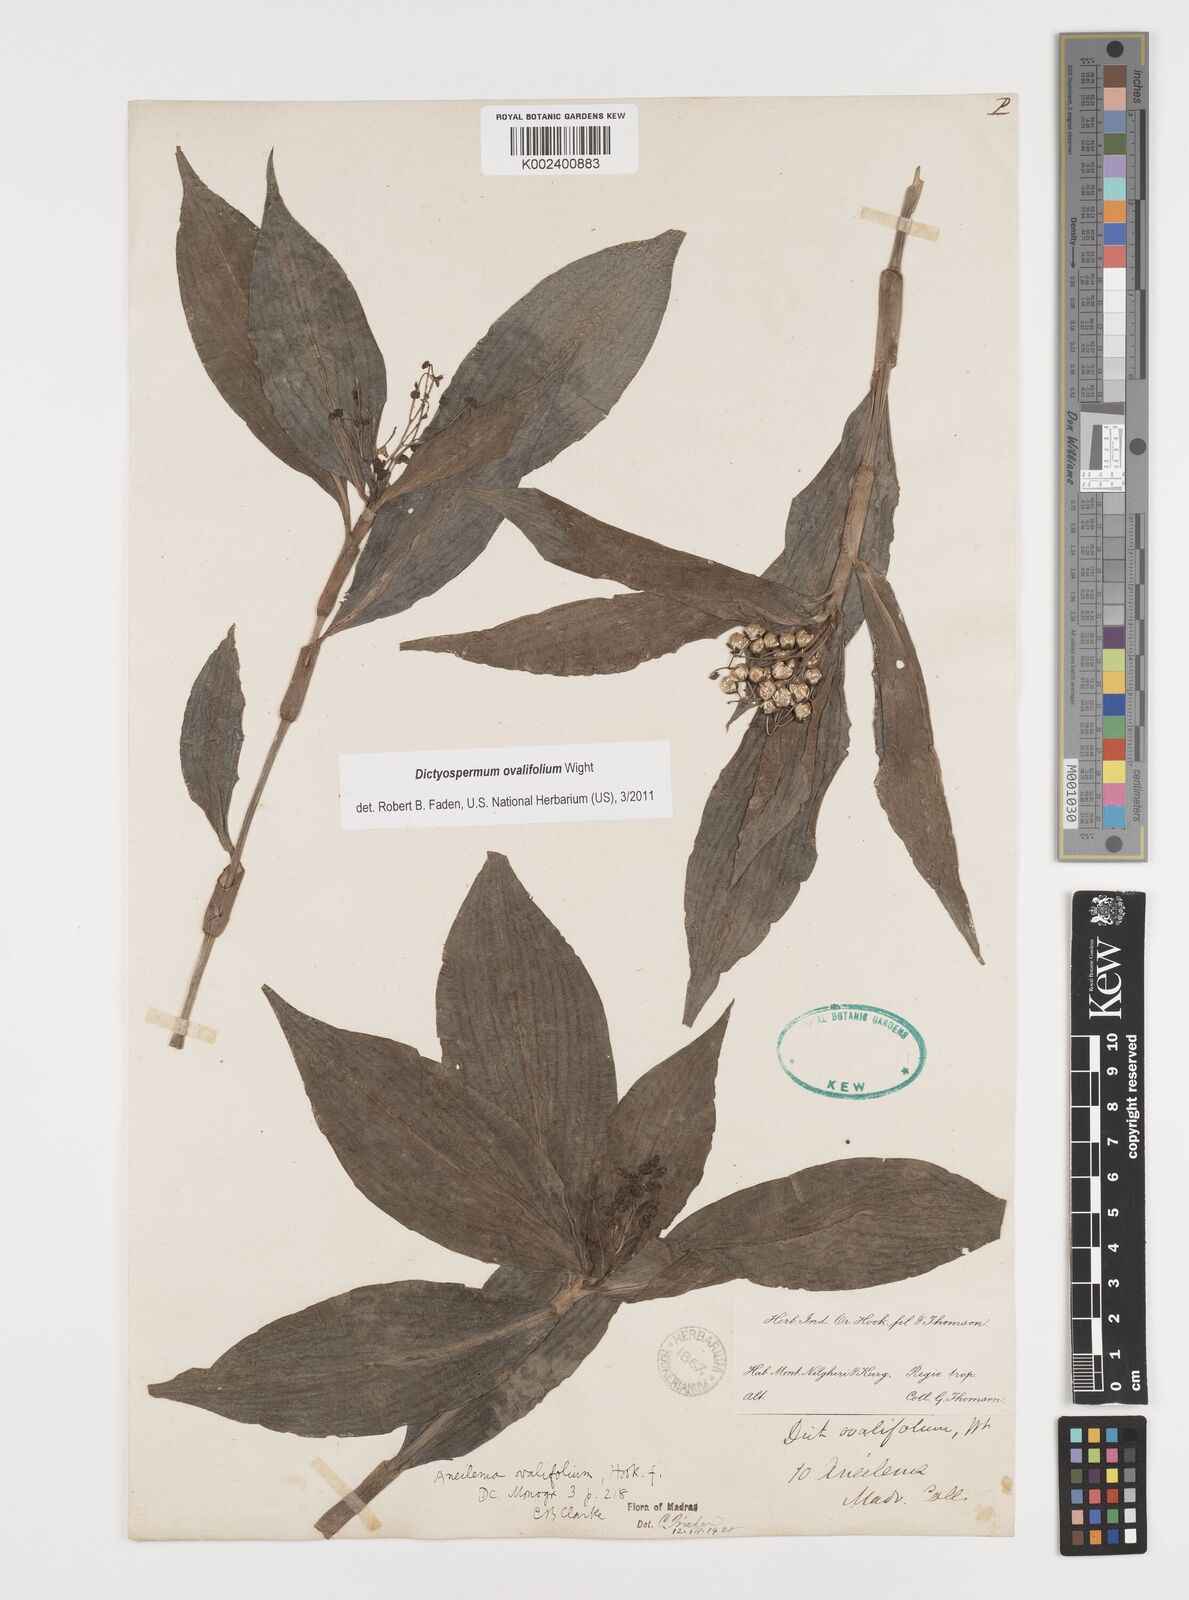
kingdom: Plantae
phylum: Tracheophyta
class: Liliopsida
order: Commelinales
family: Commelinaceae
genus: Dictyospermum
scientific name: Dictyospermum ovalifolium
